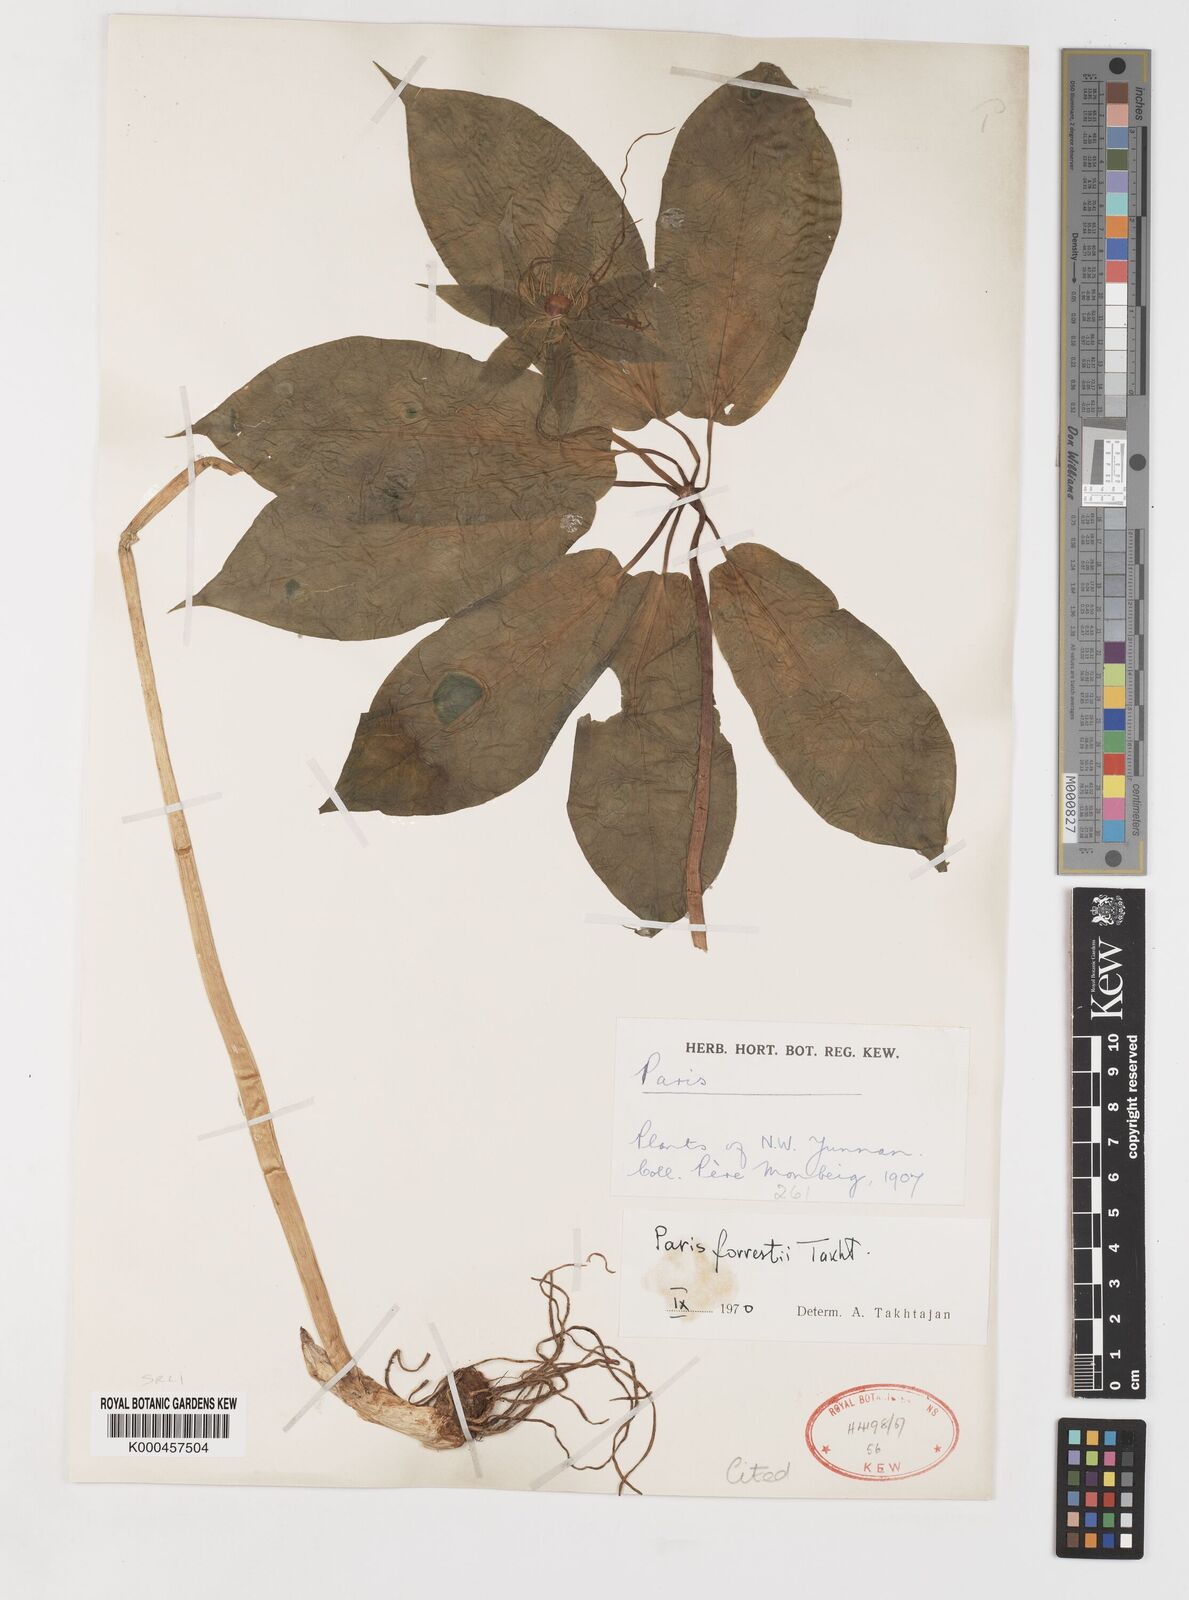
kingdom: Plantae
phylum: Tracheophyta
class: Liliopsida
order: Liliales
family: Melanthiaceae
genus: Paris
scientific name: Paris forrestii
